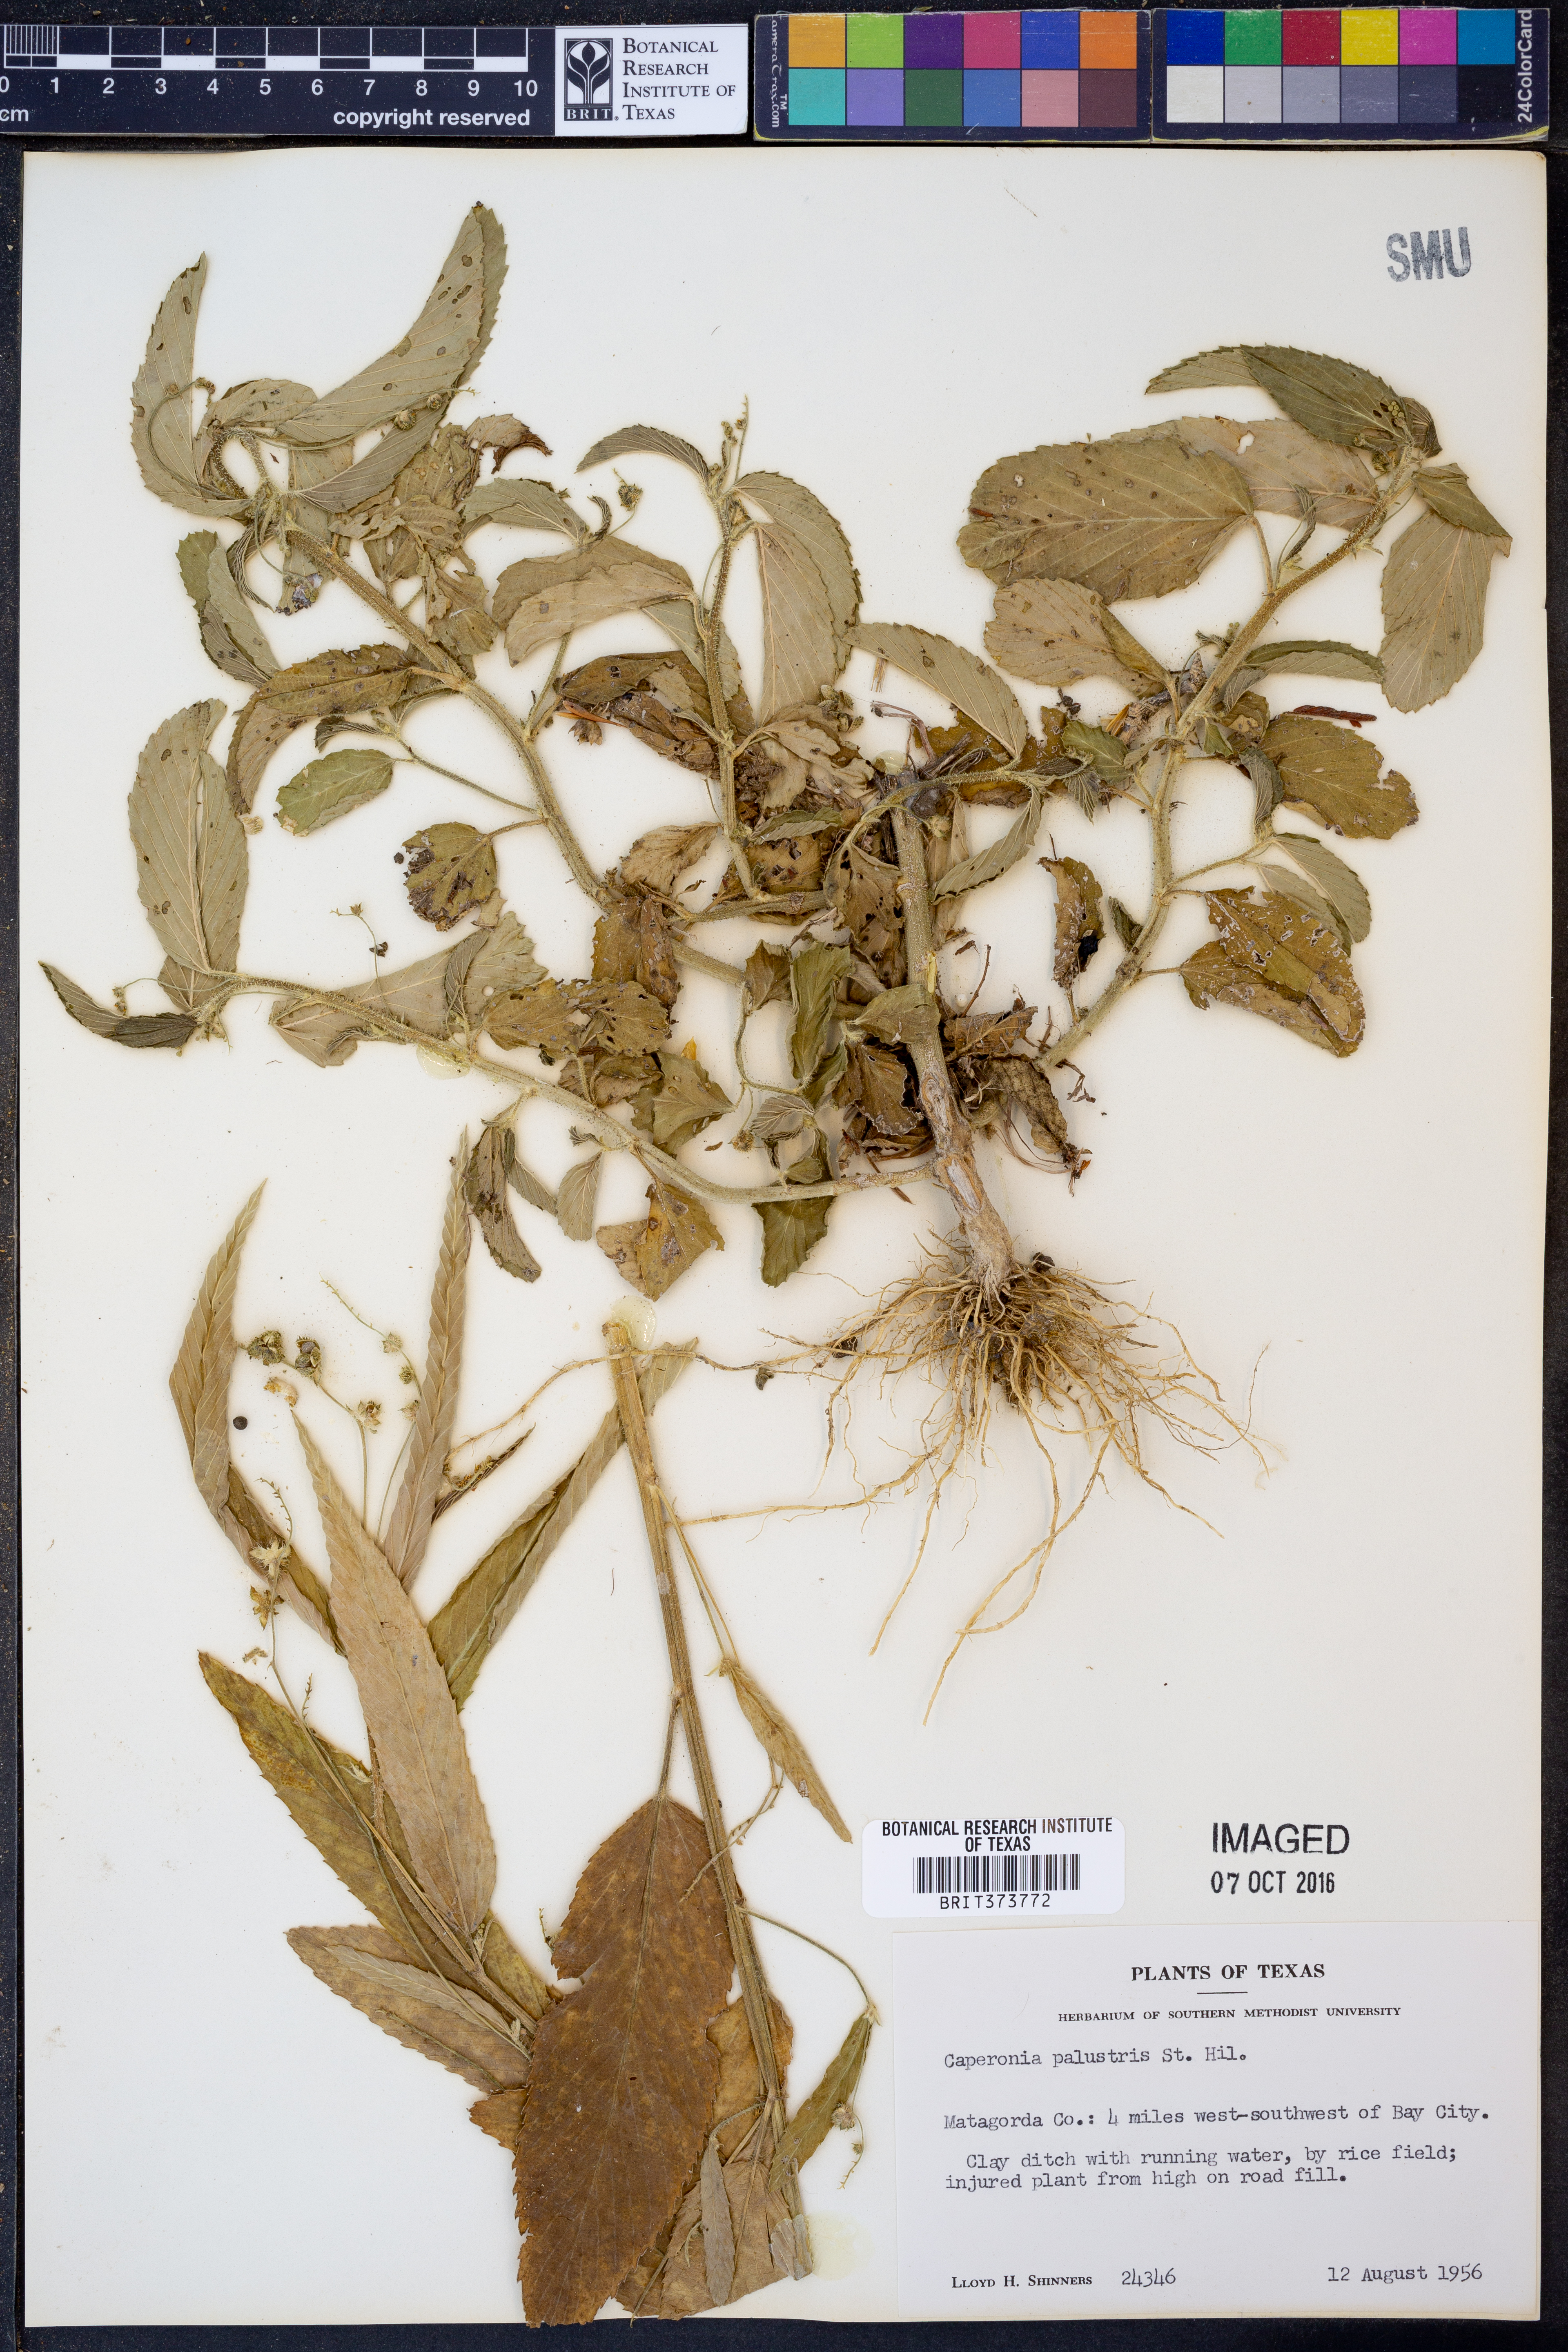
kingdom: Plantae
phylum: Tracheophyta
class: Magnoliopsida
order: Malpighiales
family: Euphorbiaceae
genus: Caperonia
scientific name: Caperonia palustris
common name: Sacatrapo
